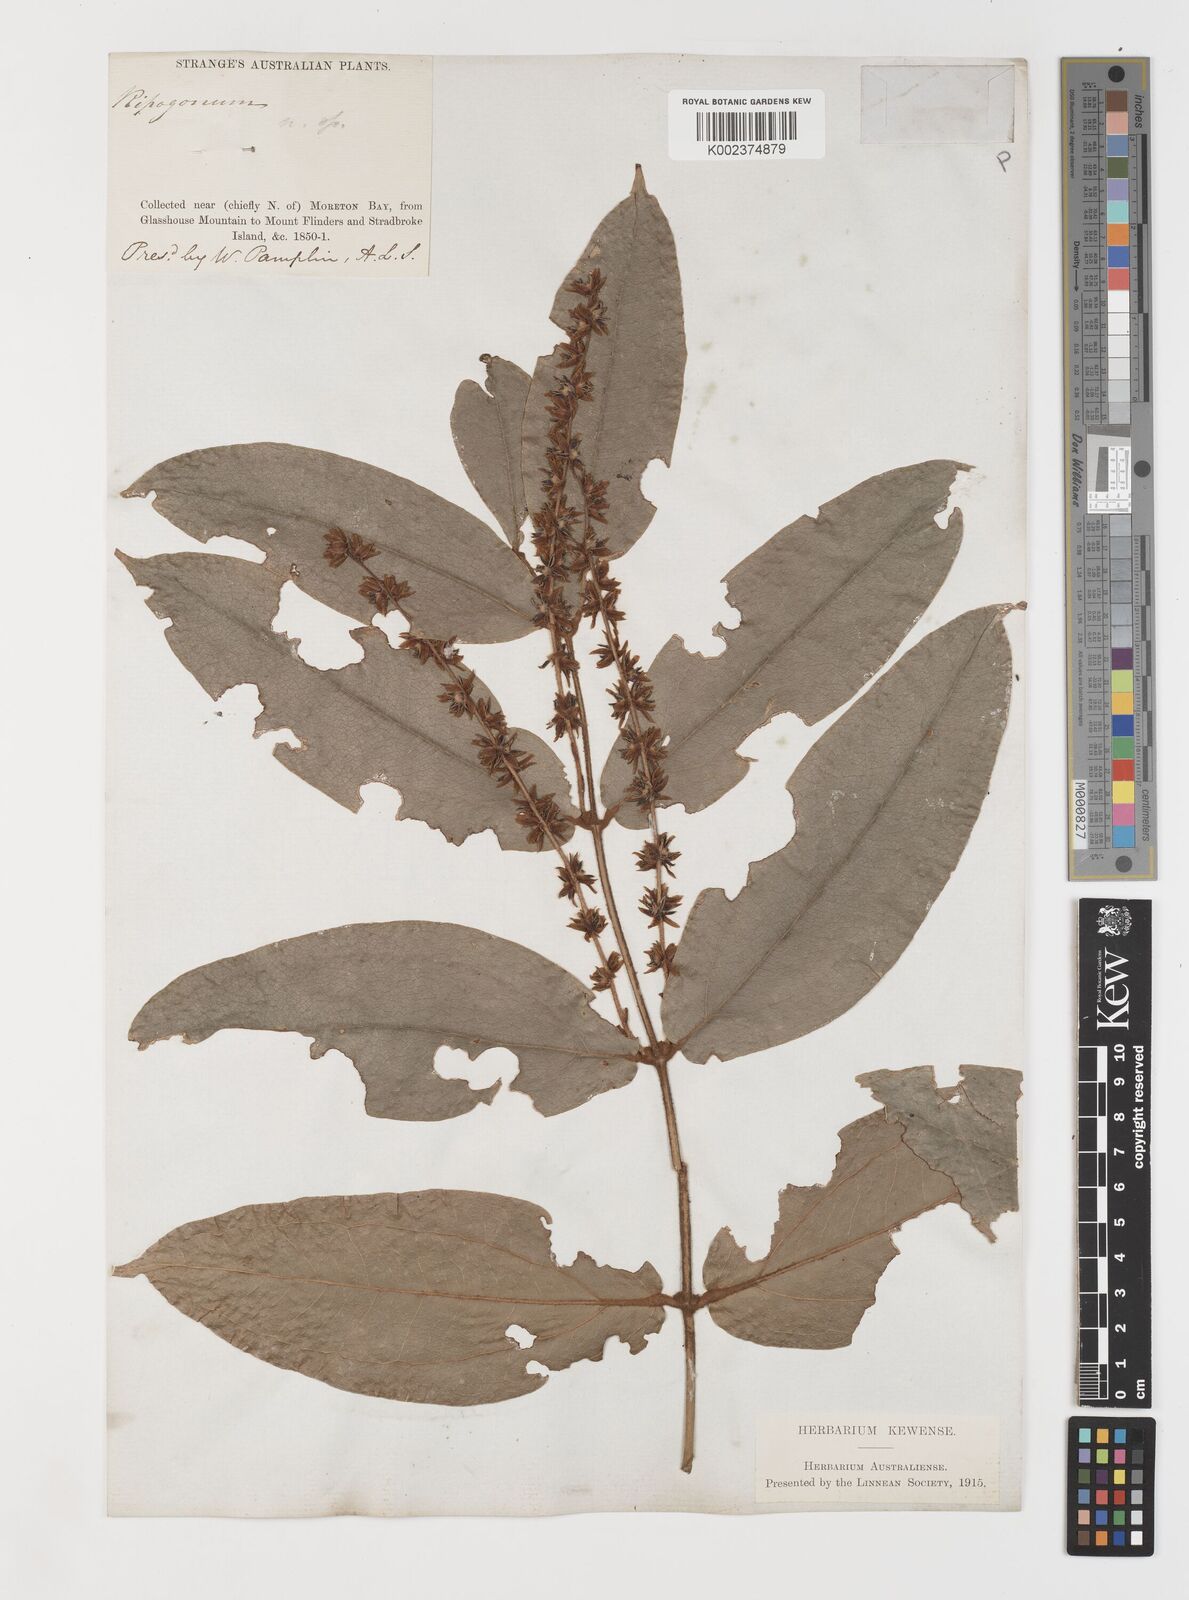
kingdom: Plantae
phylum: Tracheophyta
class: Liliopsida
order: Liliales
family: Ripogonaceae
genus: Ripogonum
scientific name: Ripogonum elseyanum
